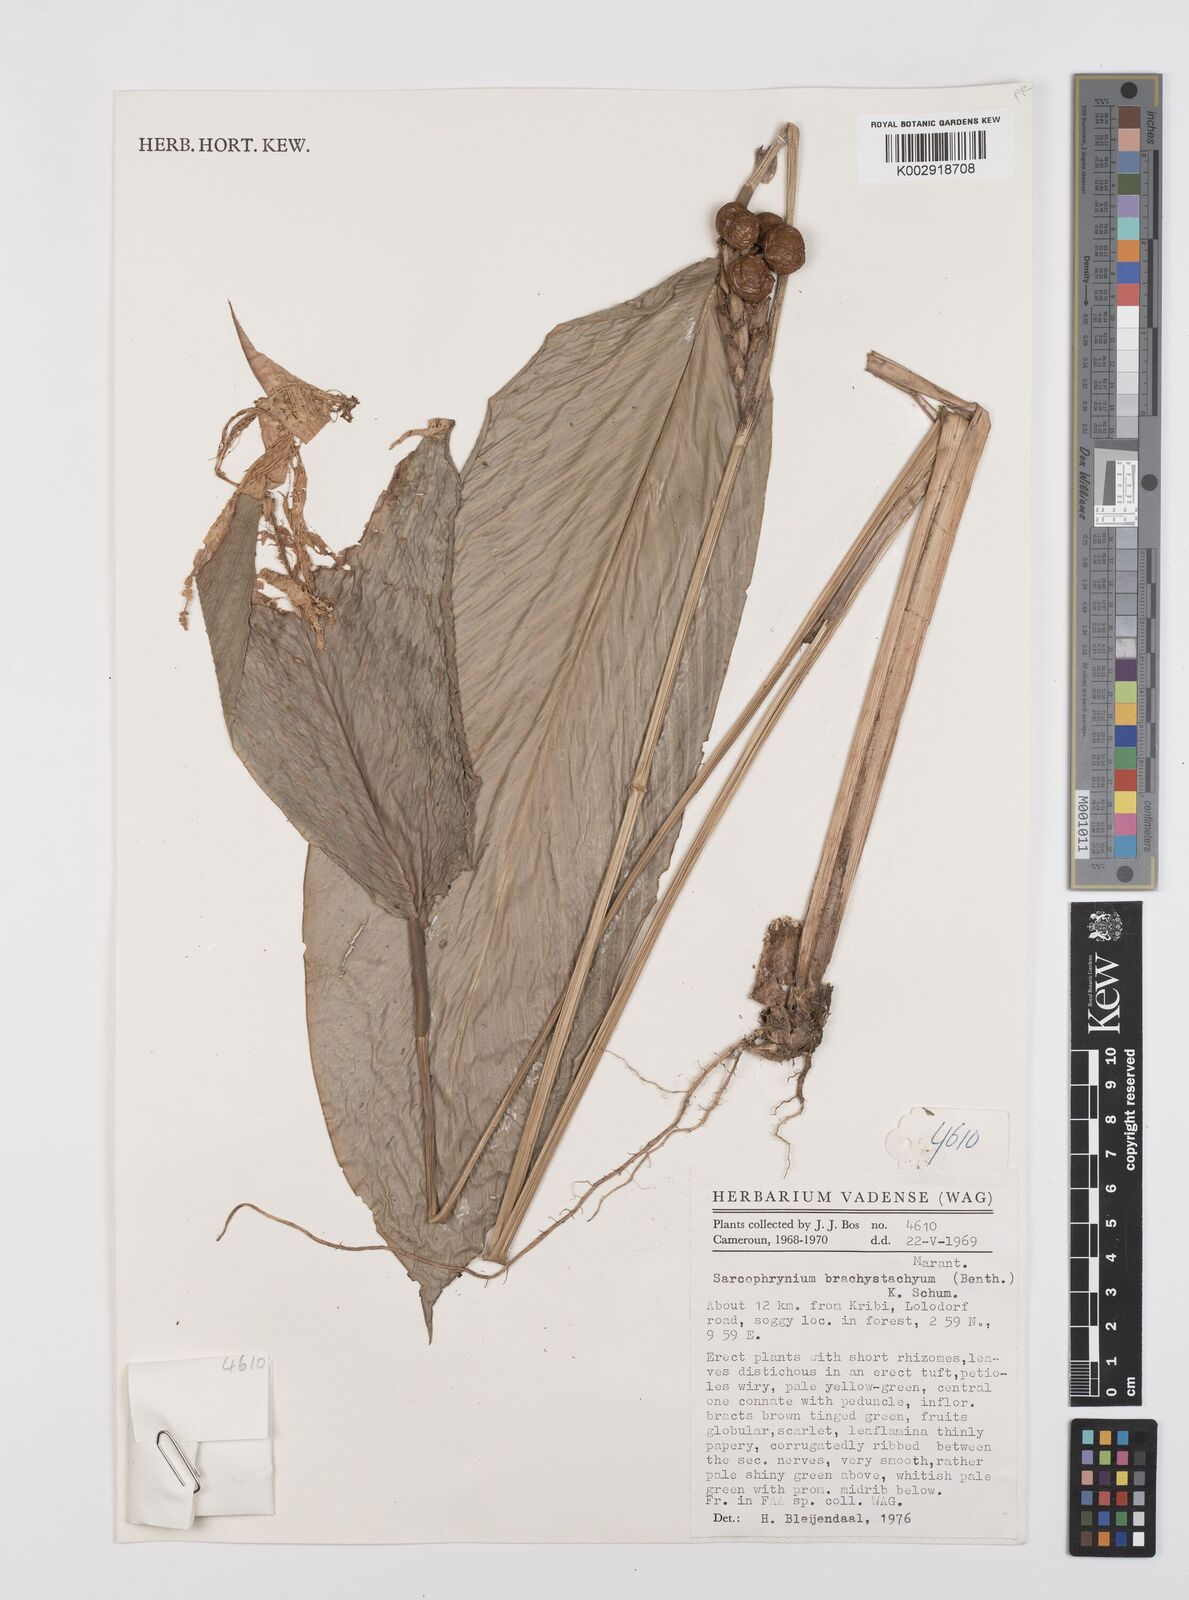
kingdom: Plantae
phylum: Tracheophyta
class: Liliopsida
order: Zingiberales
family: Marantaceae
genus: Sarcophrynium
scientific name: Sarcophrynium brachystachyum
